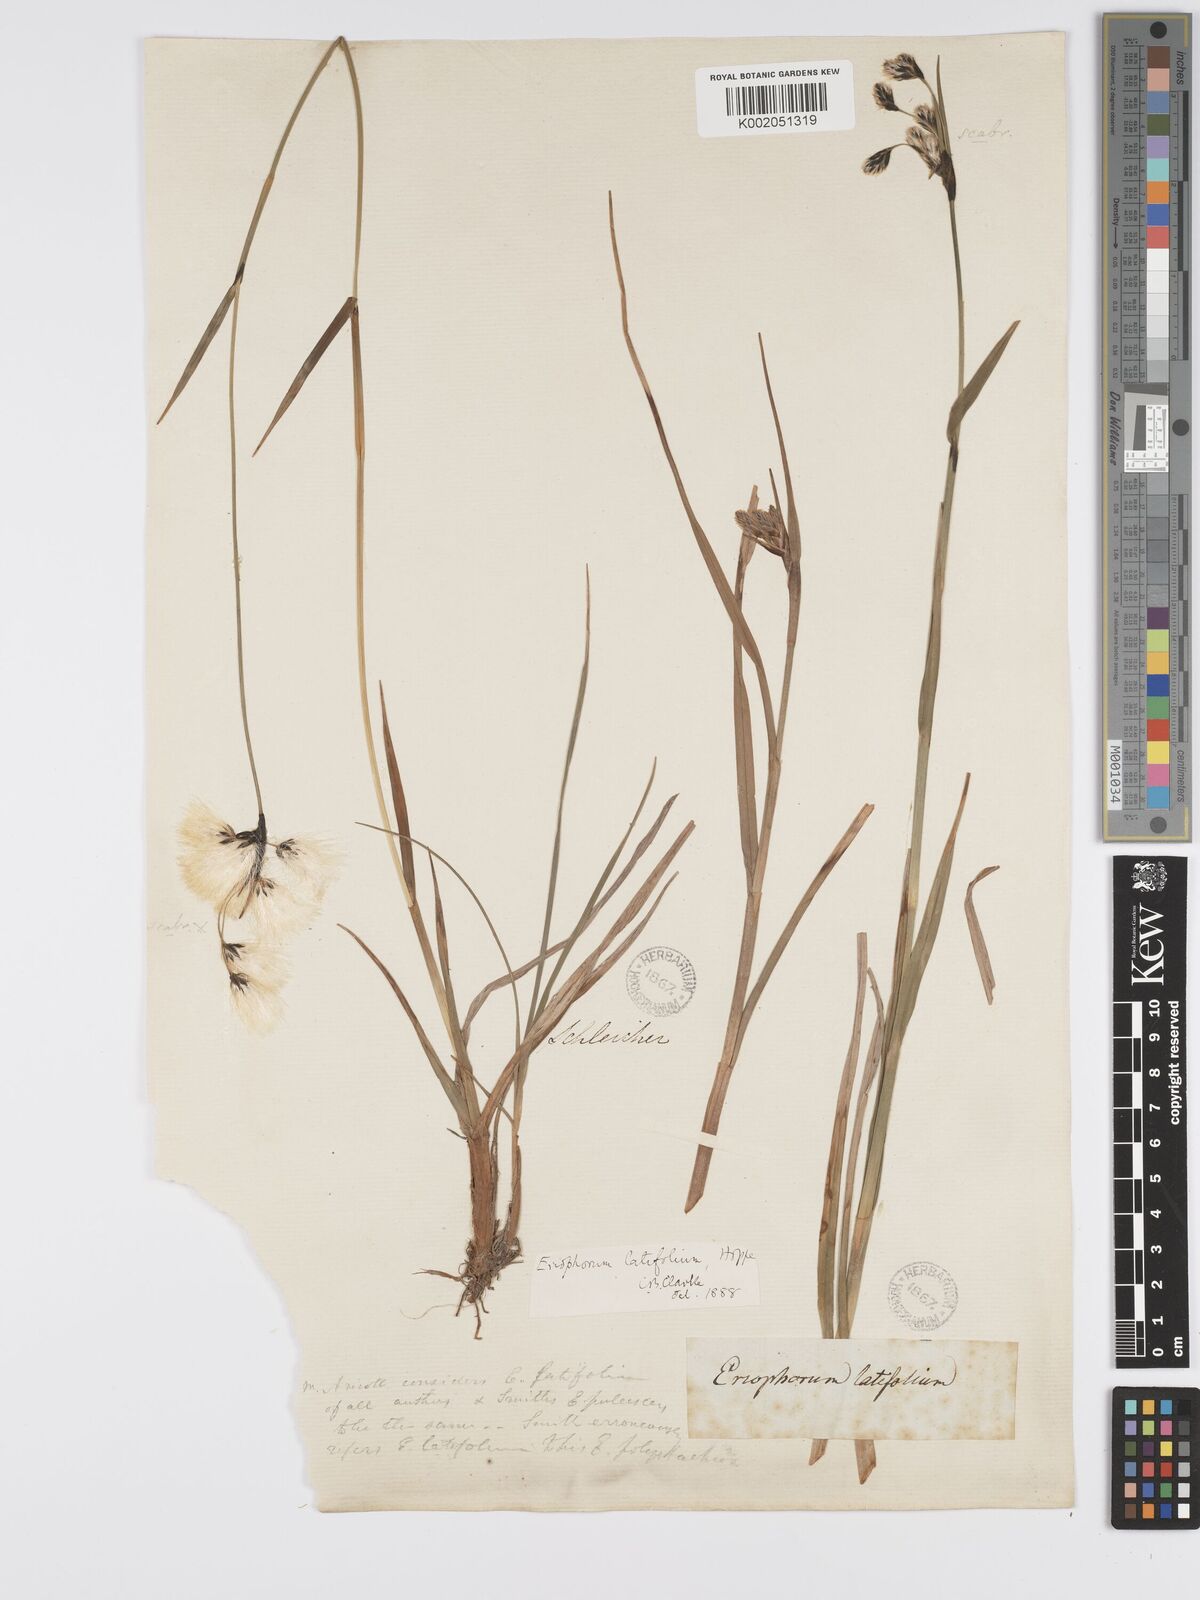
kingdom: Plantae
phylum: Tracheophyta
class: Liliopsida
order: Poales
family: Cyperaceae
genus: Eriophorum
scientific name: Eriophorum latifolium
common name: Broad-leaved cottongrass
